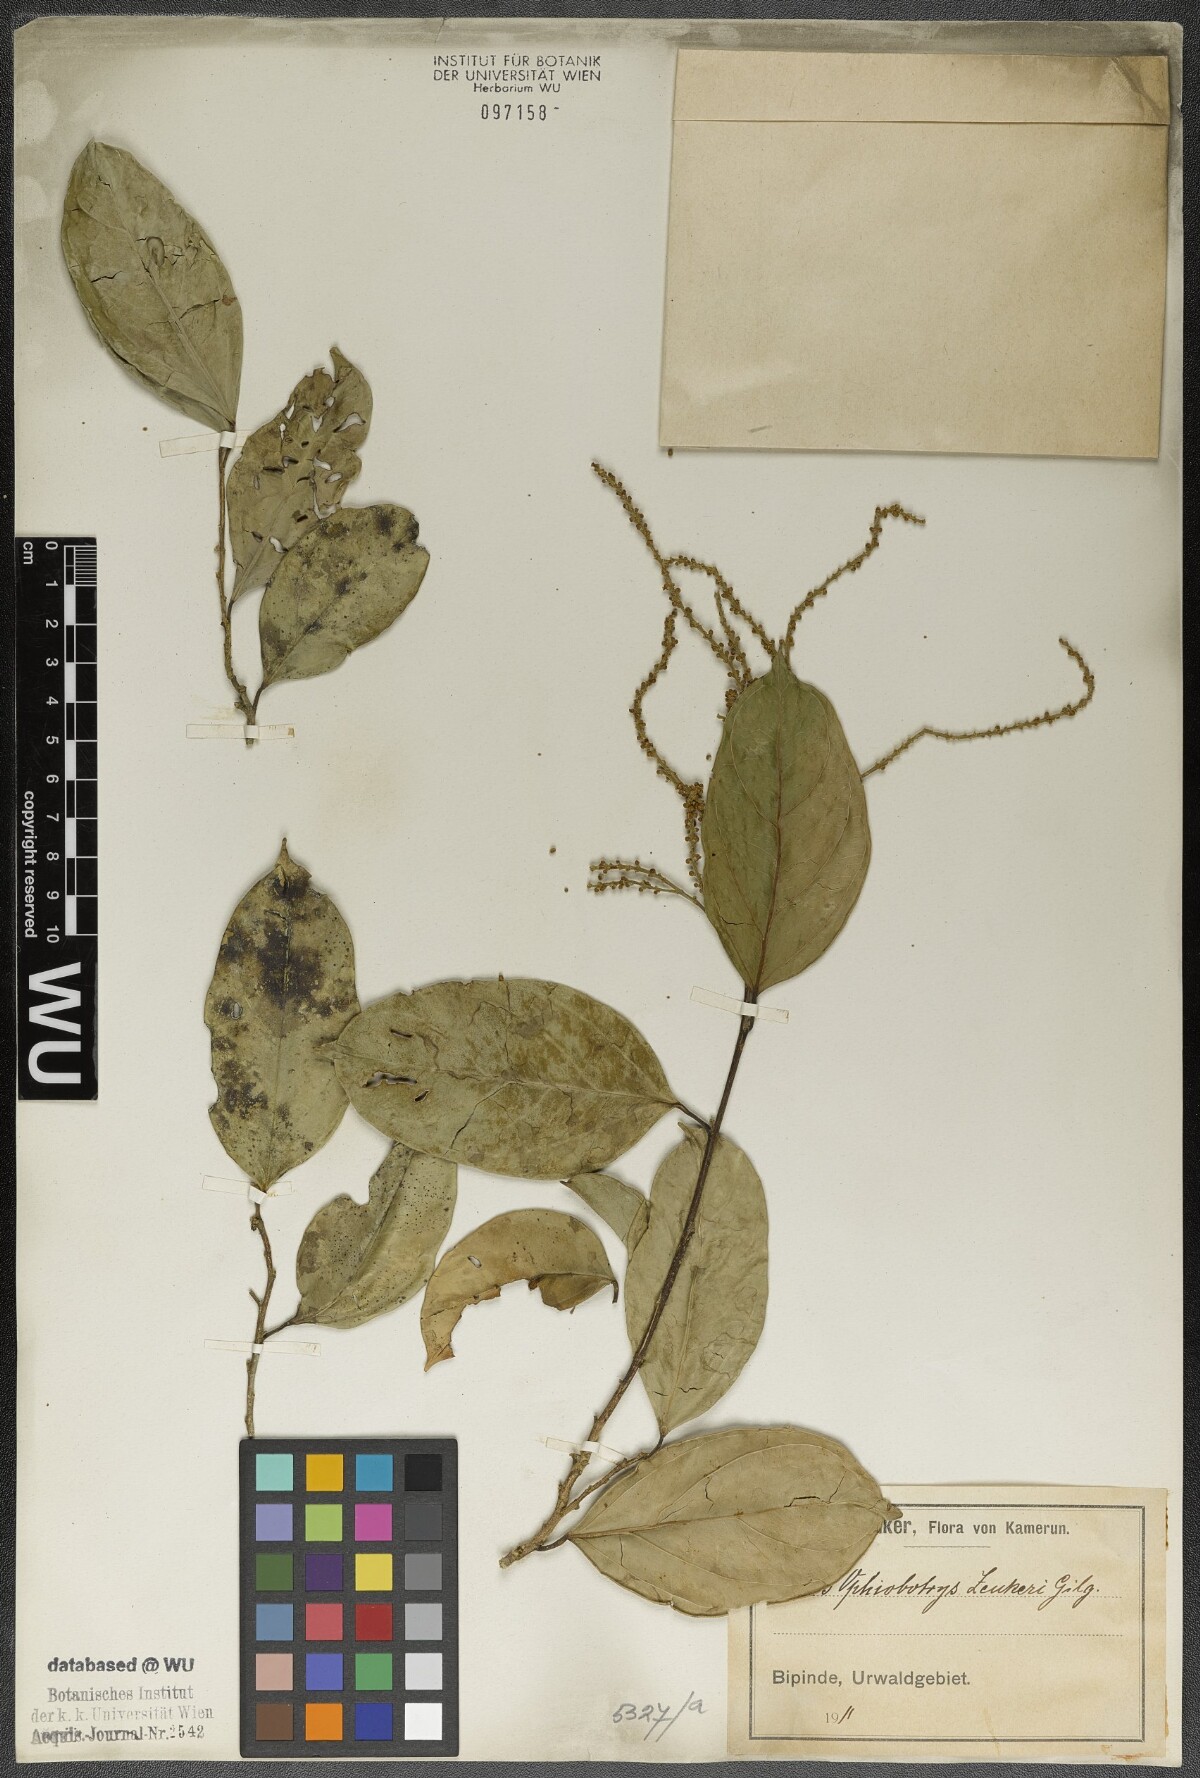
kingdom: Plantae
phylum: Tracheophyta
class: Magnoliopsida
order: Malpighiales
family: Salicaceae
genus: Ophiobotrys
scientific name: Ophiobotrys zenkeri
